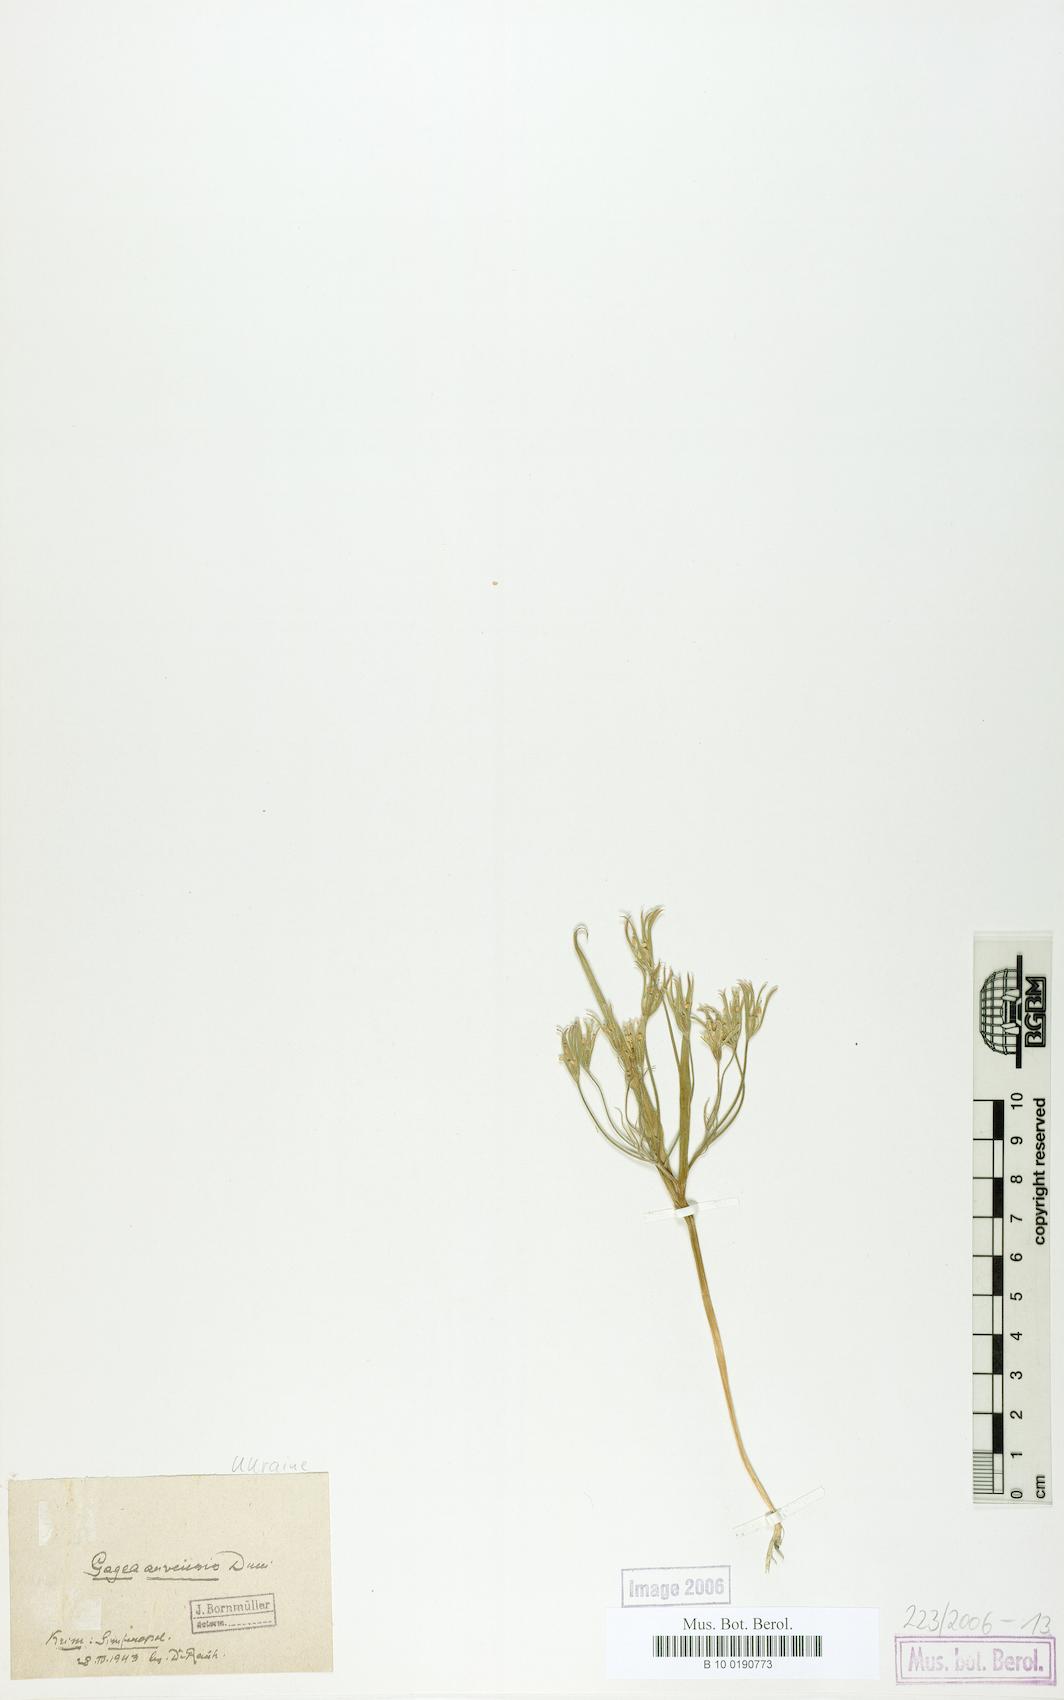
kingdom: Plantae
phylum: Tracheophyta
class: Liliopsida
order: Liliales
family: Liliaceae
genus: Gagea
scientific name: Gagea minima
